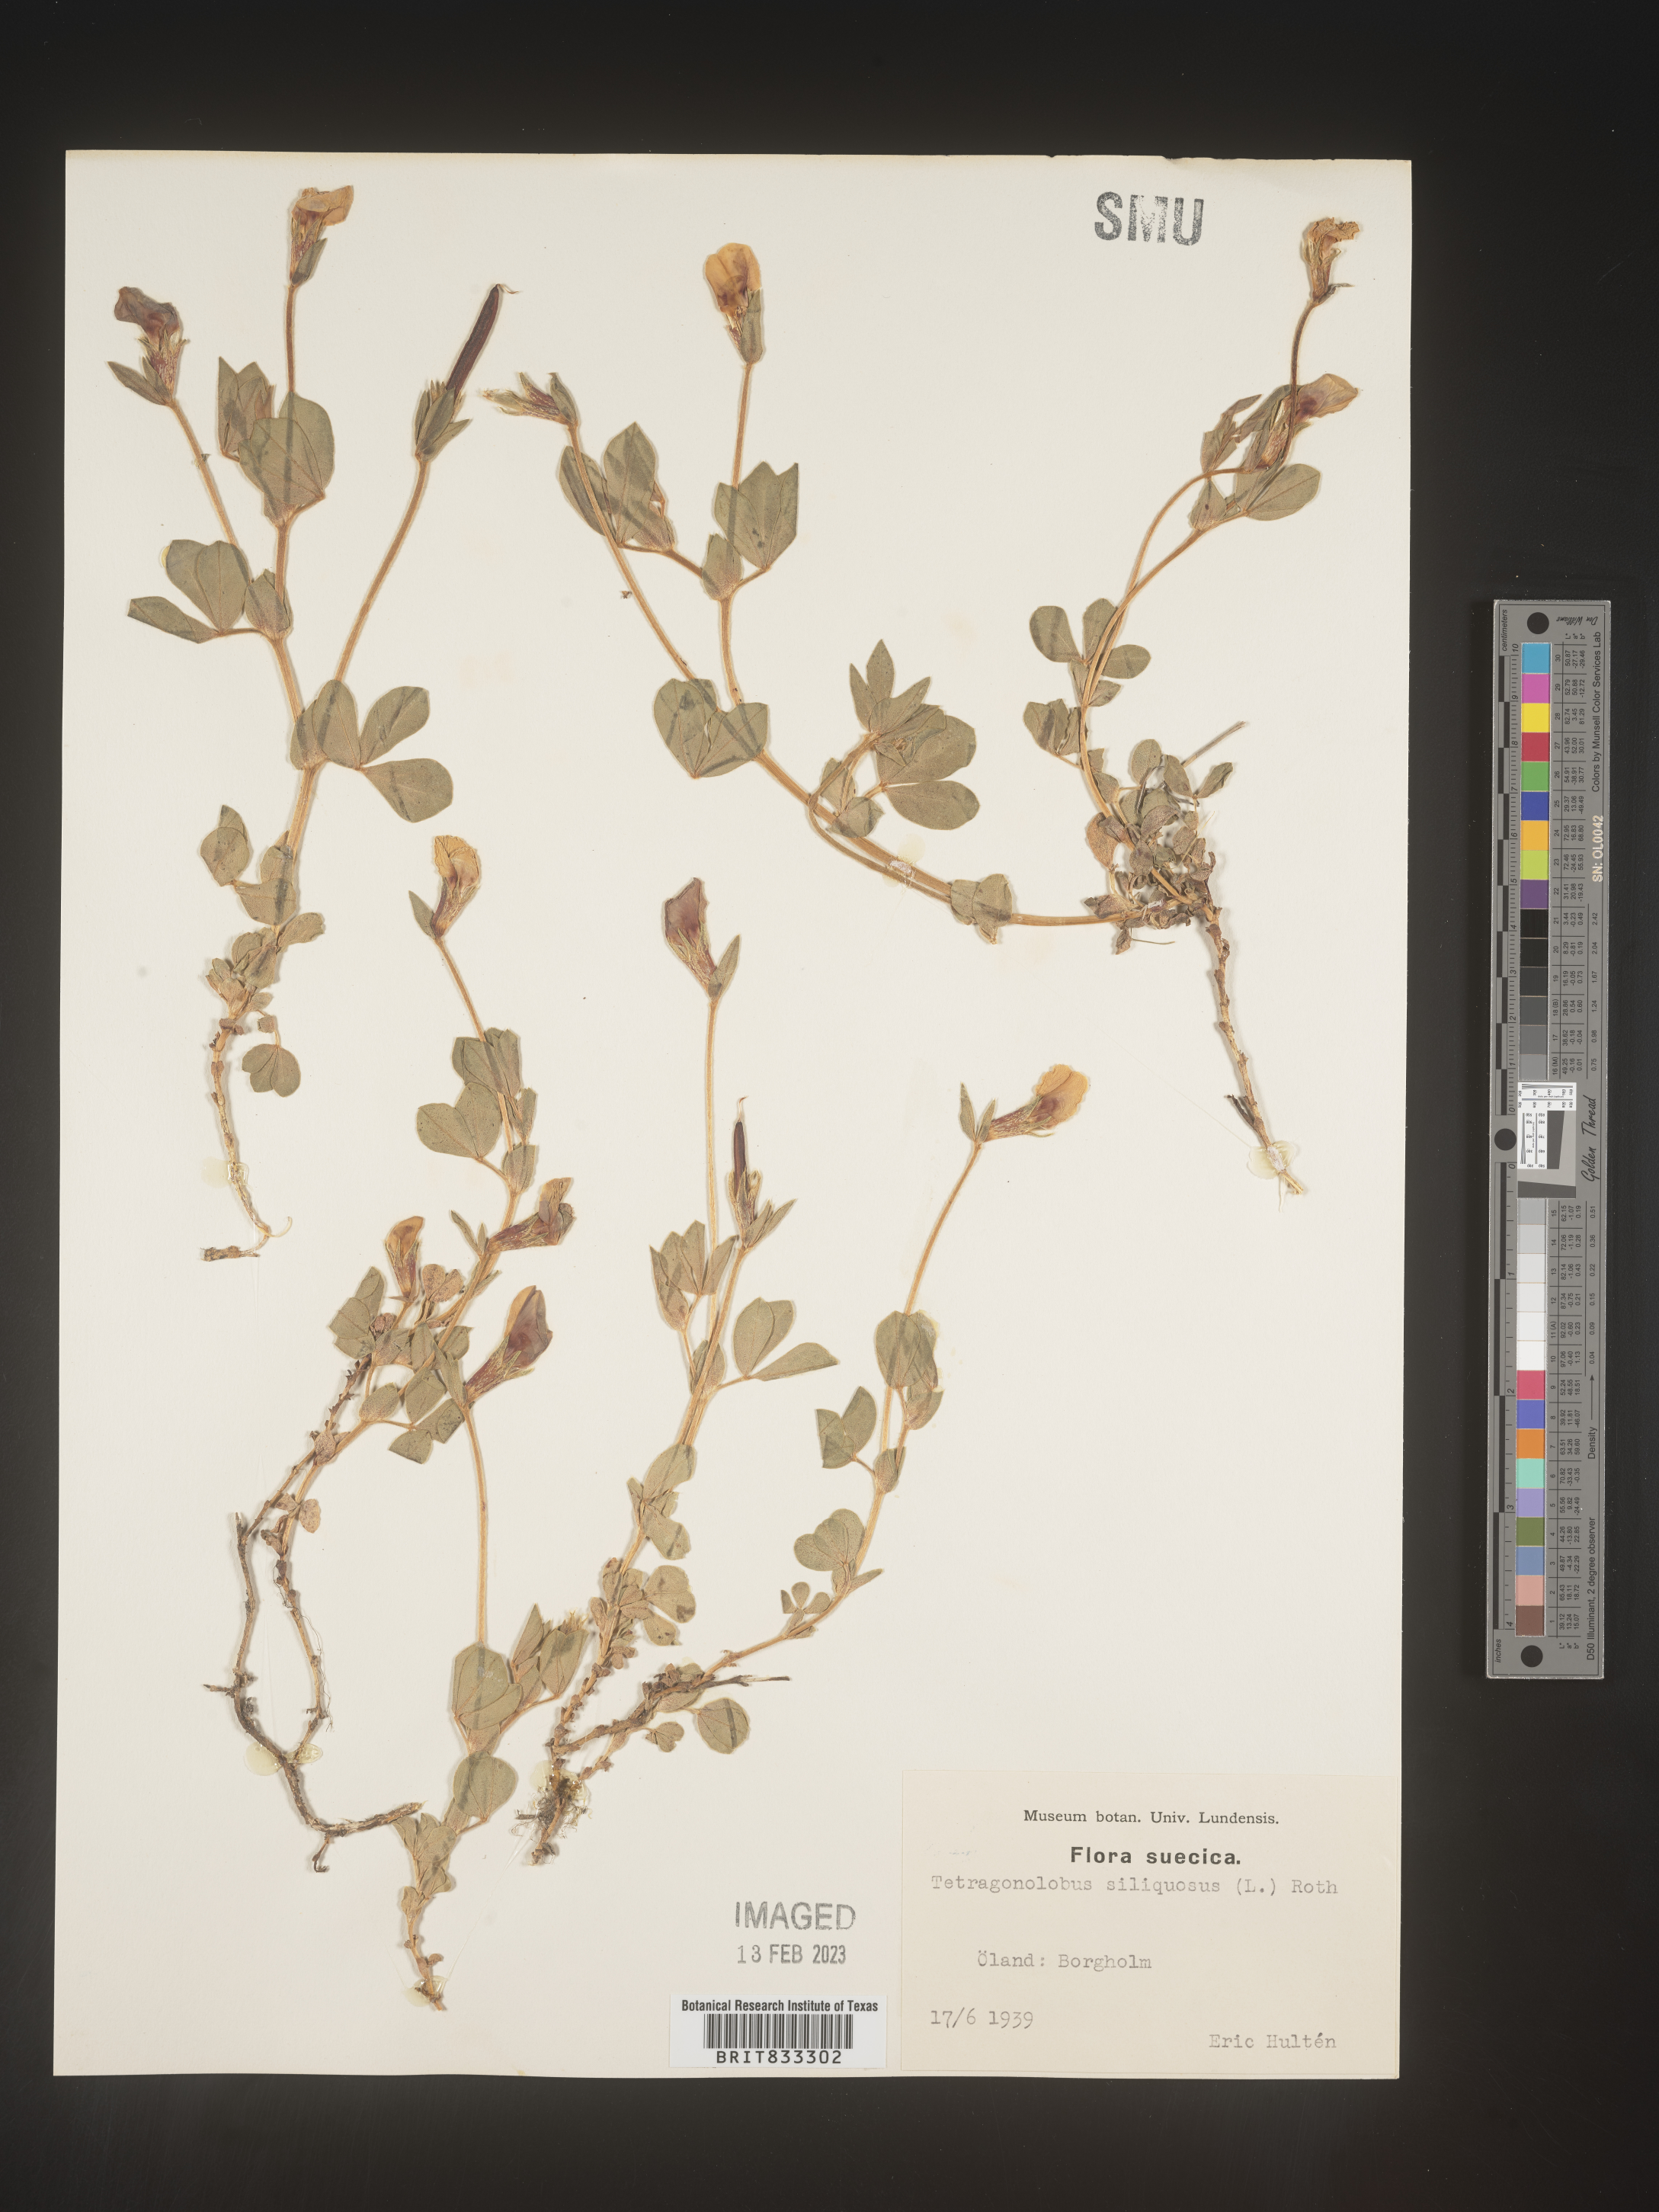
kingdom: Plantae
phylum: Tracheophyta
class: Magnoliopsida
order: Fabales
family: Fabaceae
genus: Lotus
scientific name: Lotus
